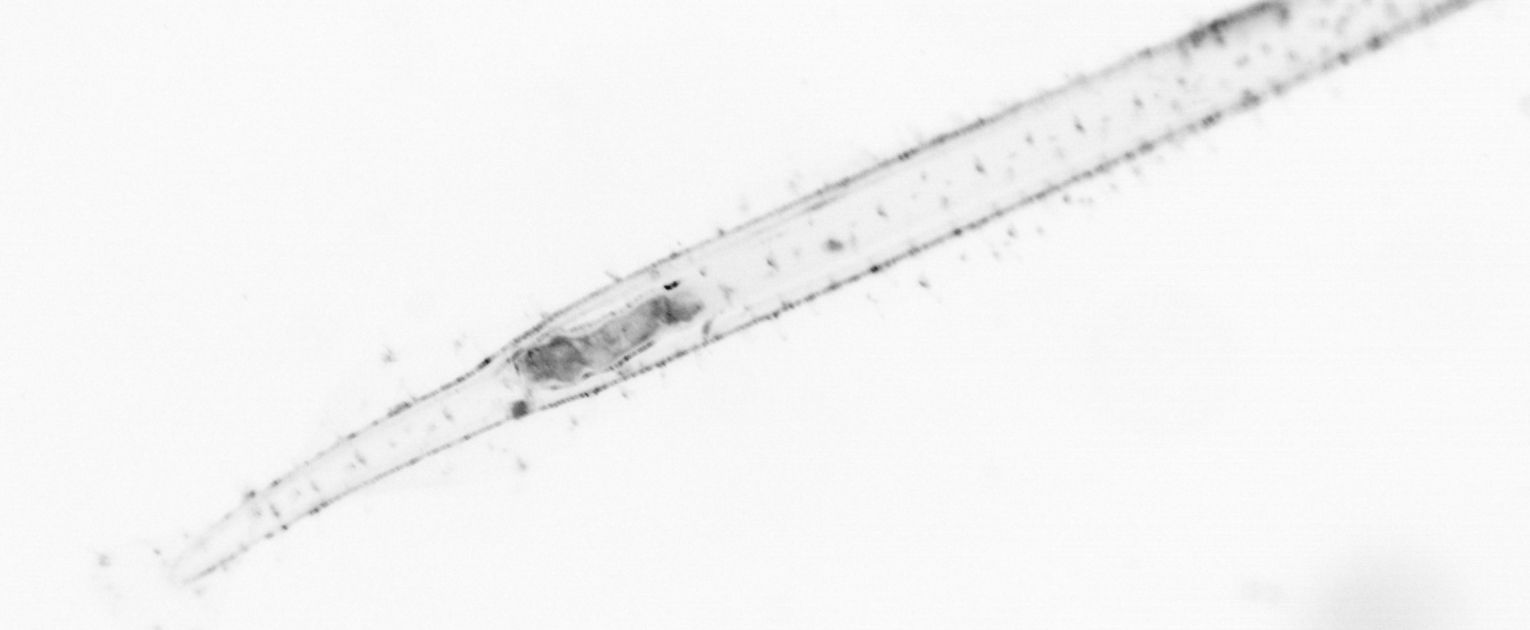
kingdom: Animalia
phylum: Chaetognatha
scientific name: Chaetognatha
